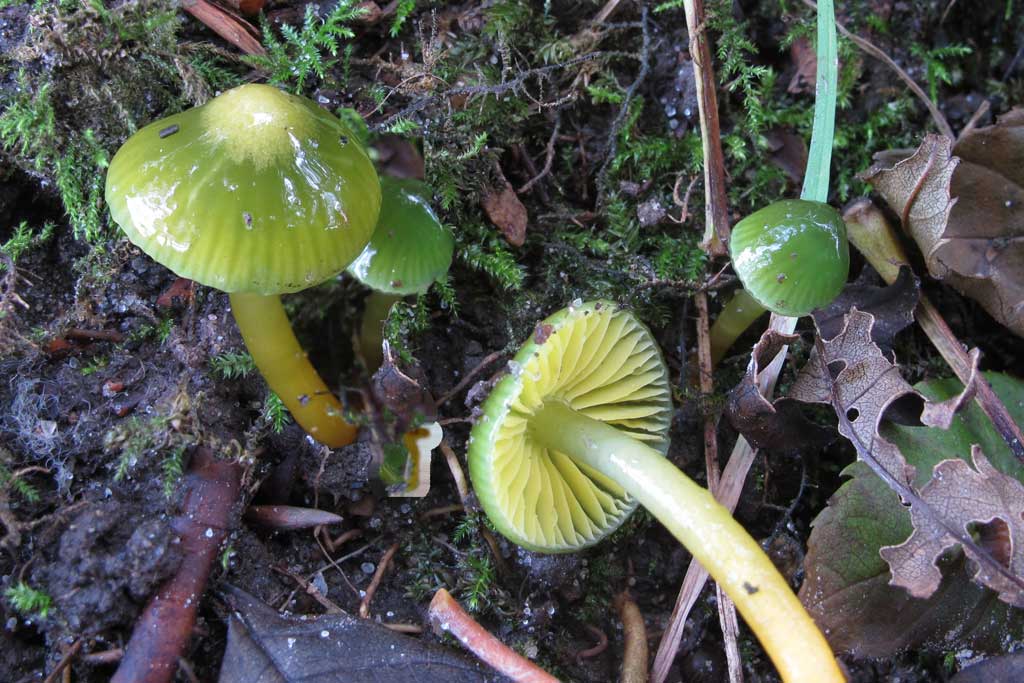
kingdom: Fungi
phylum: Basidiomycota
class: Agaricomycetes
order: Agaricales
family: Hygrophoraceae
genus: Gliophorus
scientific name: Gliophorus psittacinus
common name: papegøje-vokshat
